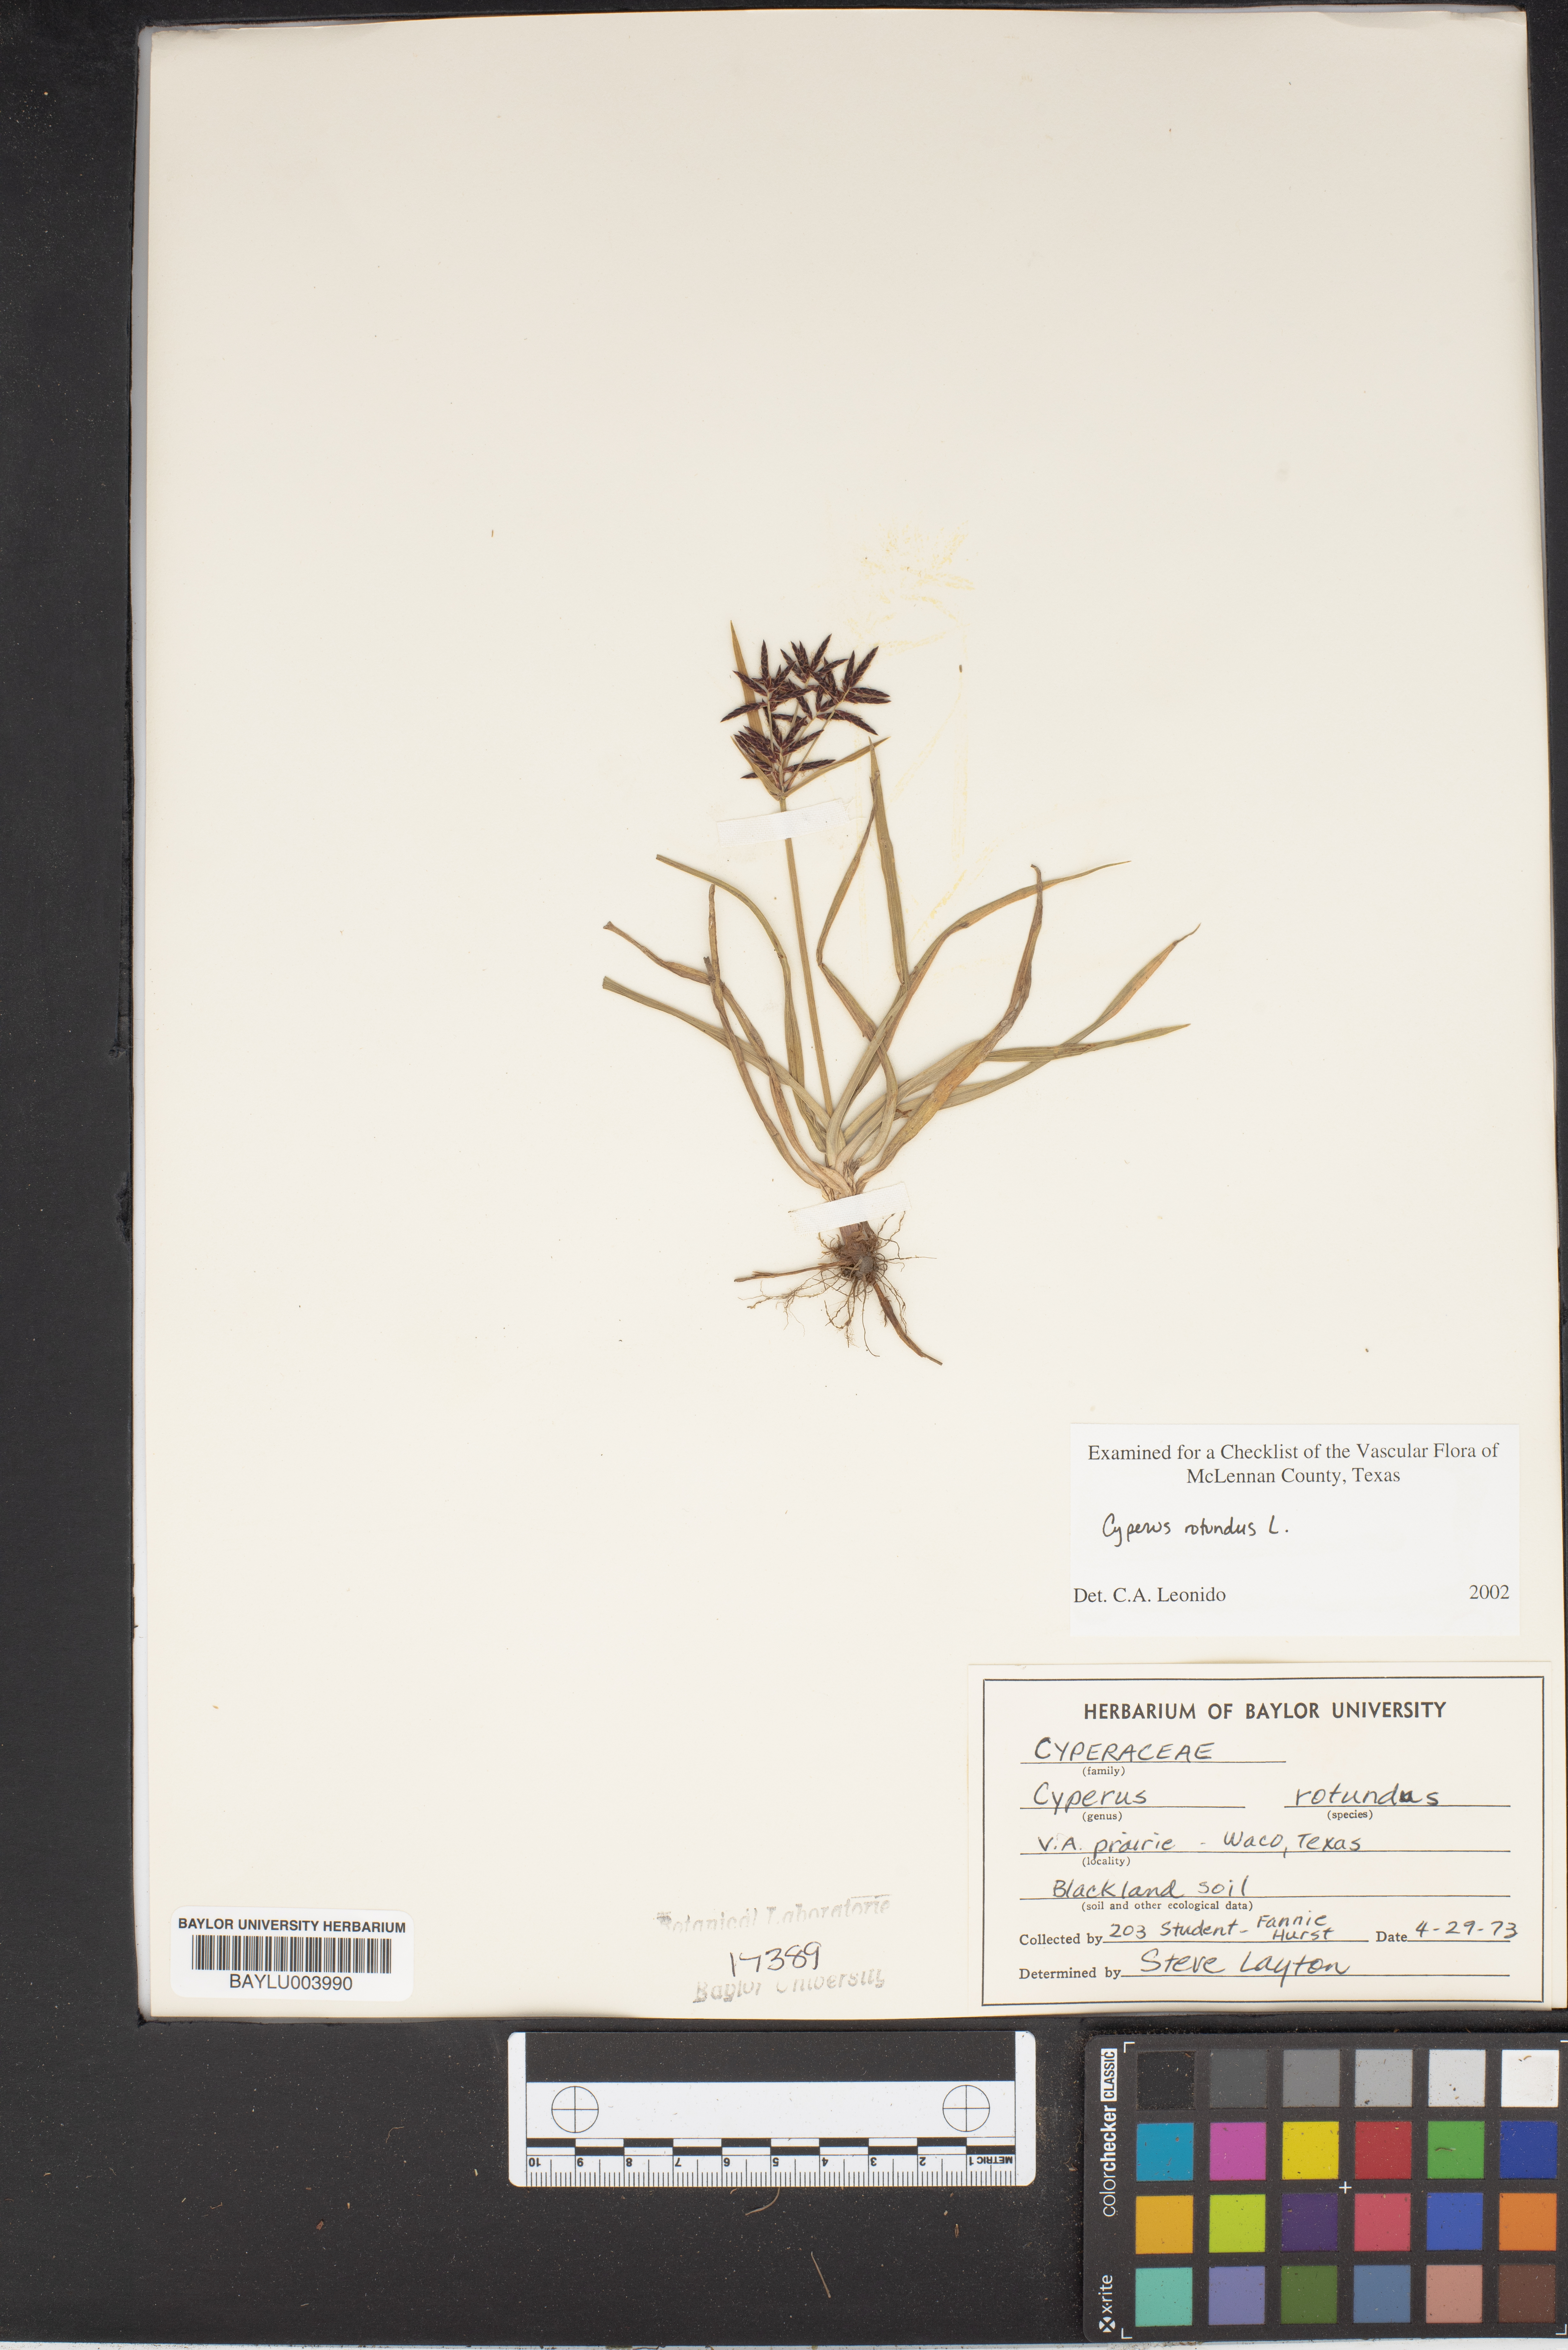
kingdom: Plantae
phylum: Tracheophyta
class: Liliopsida
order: Poales
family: Cyperaceae
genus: Cyperus
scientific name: Cyperus rotundus
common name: Nutgrass
